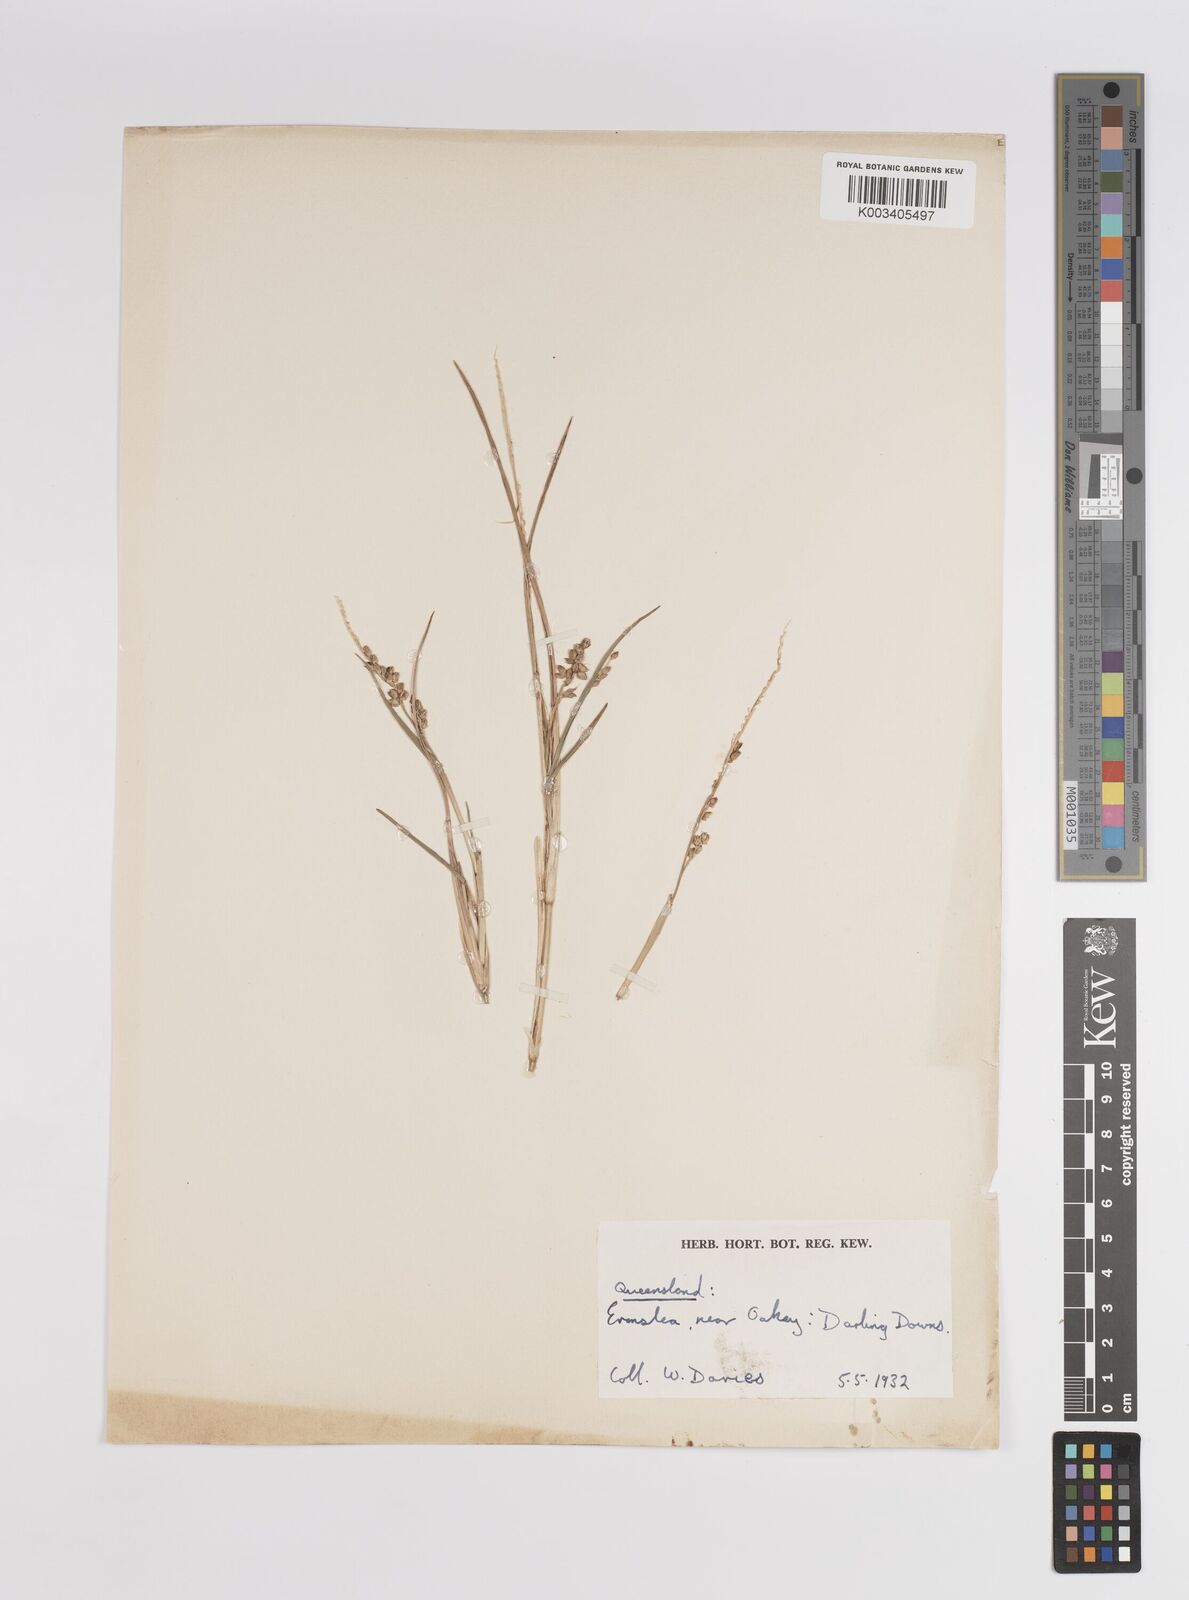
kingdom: Plantae
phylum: Tracheophyta
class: Liliopsida
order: Poales
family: Poaceae
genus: Panicum
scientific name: Panicum
